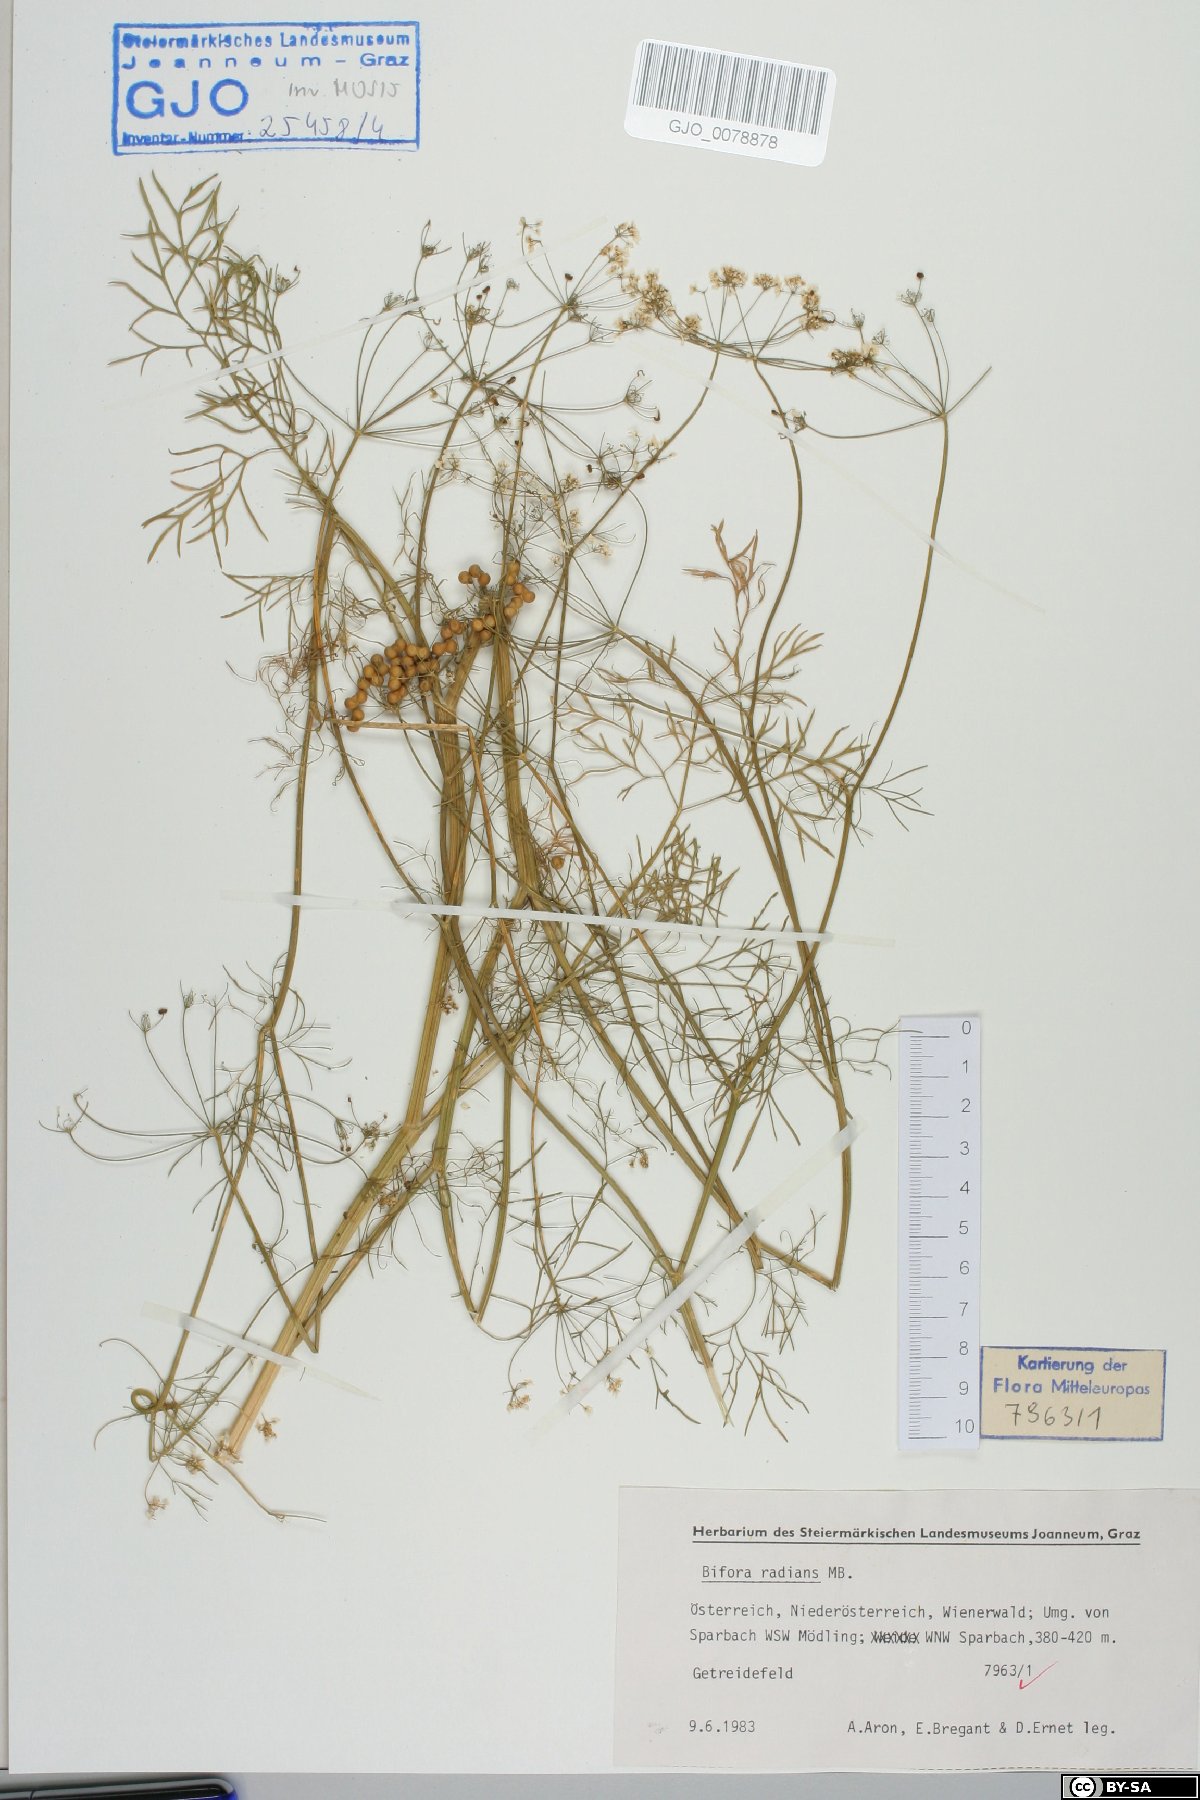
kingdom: Plantae
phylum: Tracheophyta
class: Magnoliopsida
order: Apiales
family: Apiaceae
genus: Bifora
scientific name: Bifora radians
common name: Wild bishop
